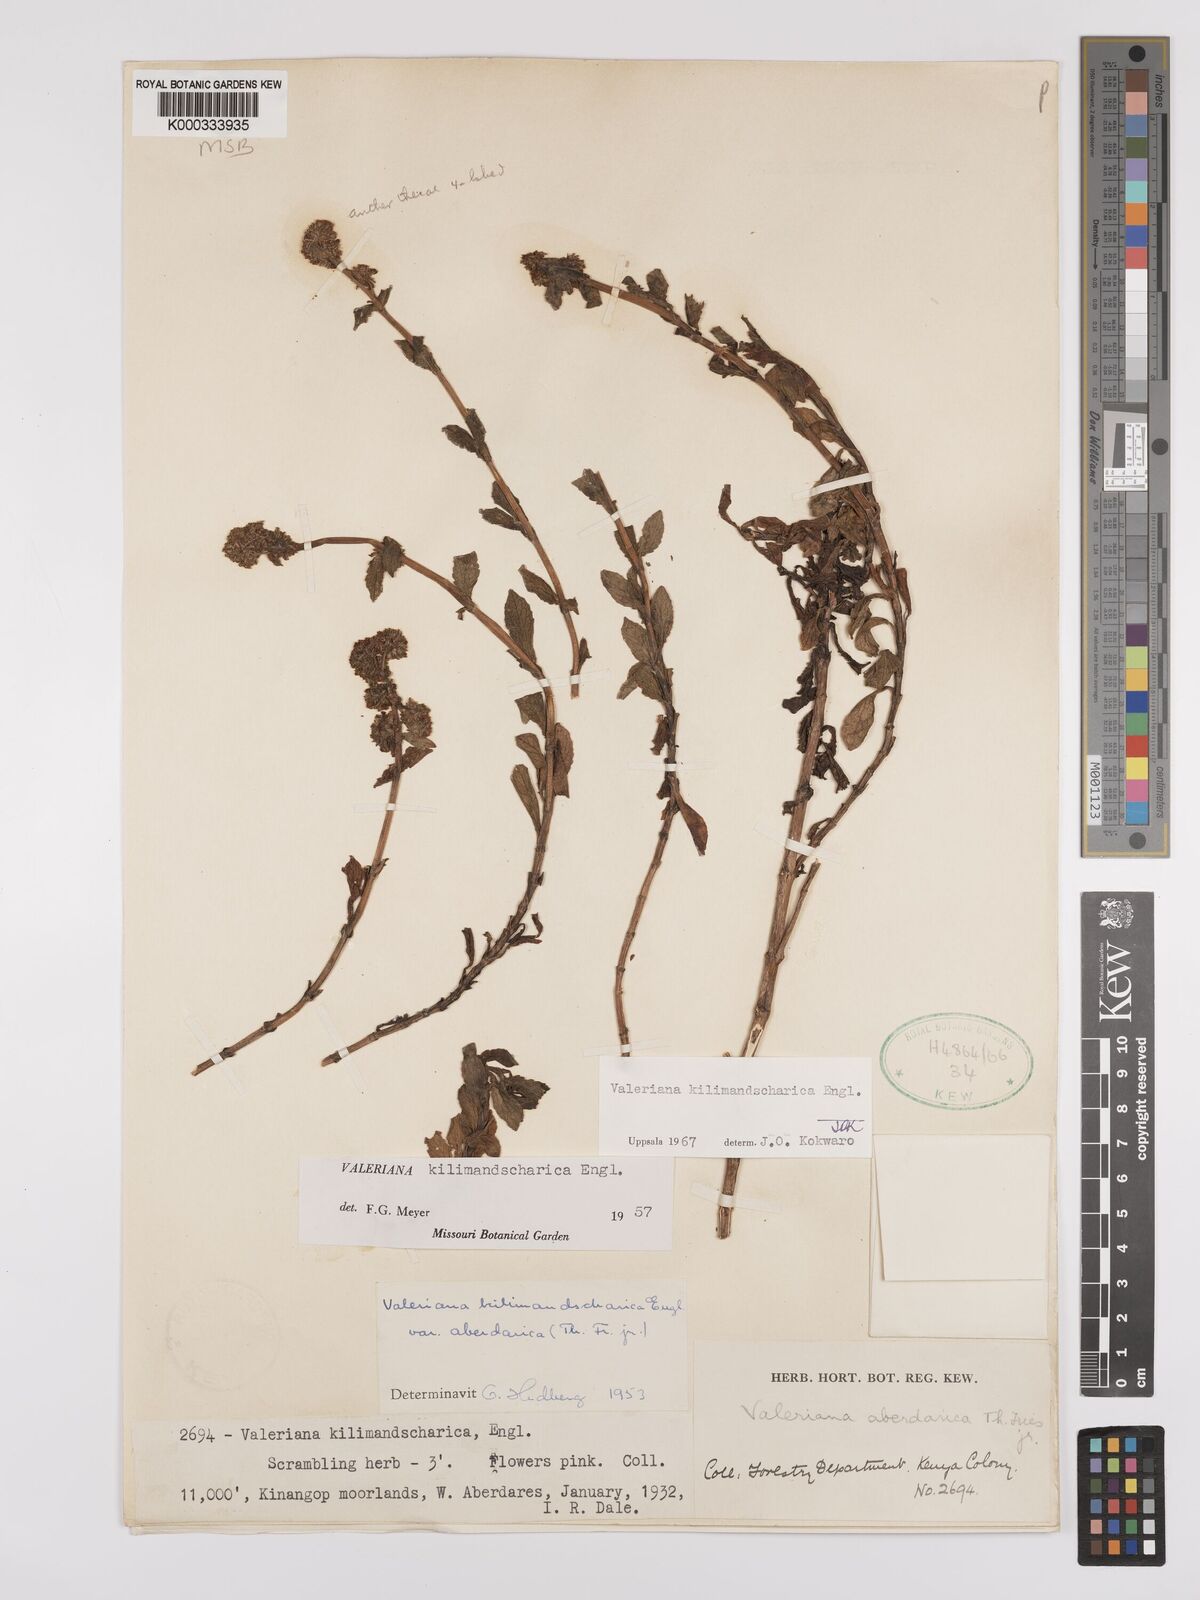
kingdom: Plantae
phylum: Tracheophyta
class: Magnoliopsida
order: Dipsacales
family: Caprifoliaceae
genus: Valeriana
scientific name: Valeriana kilimandscharica
